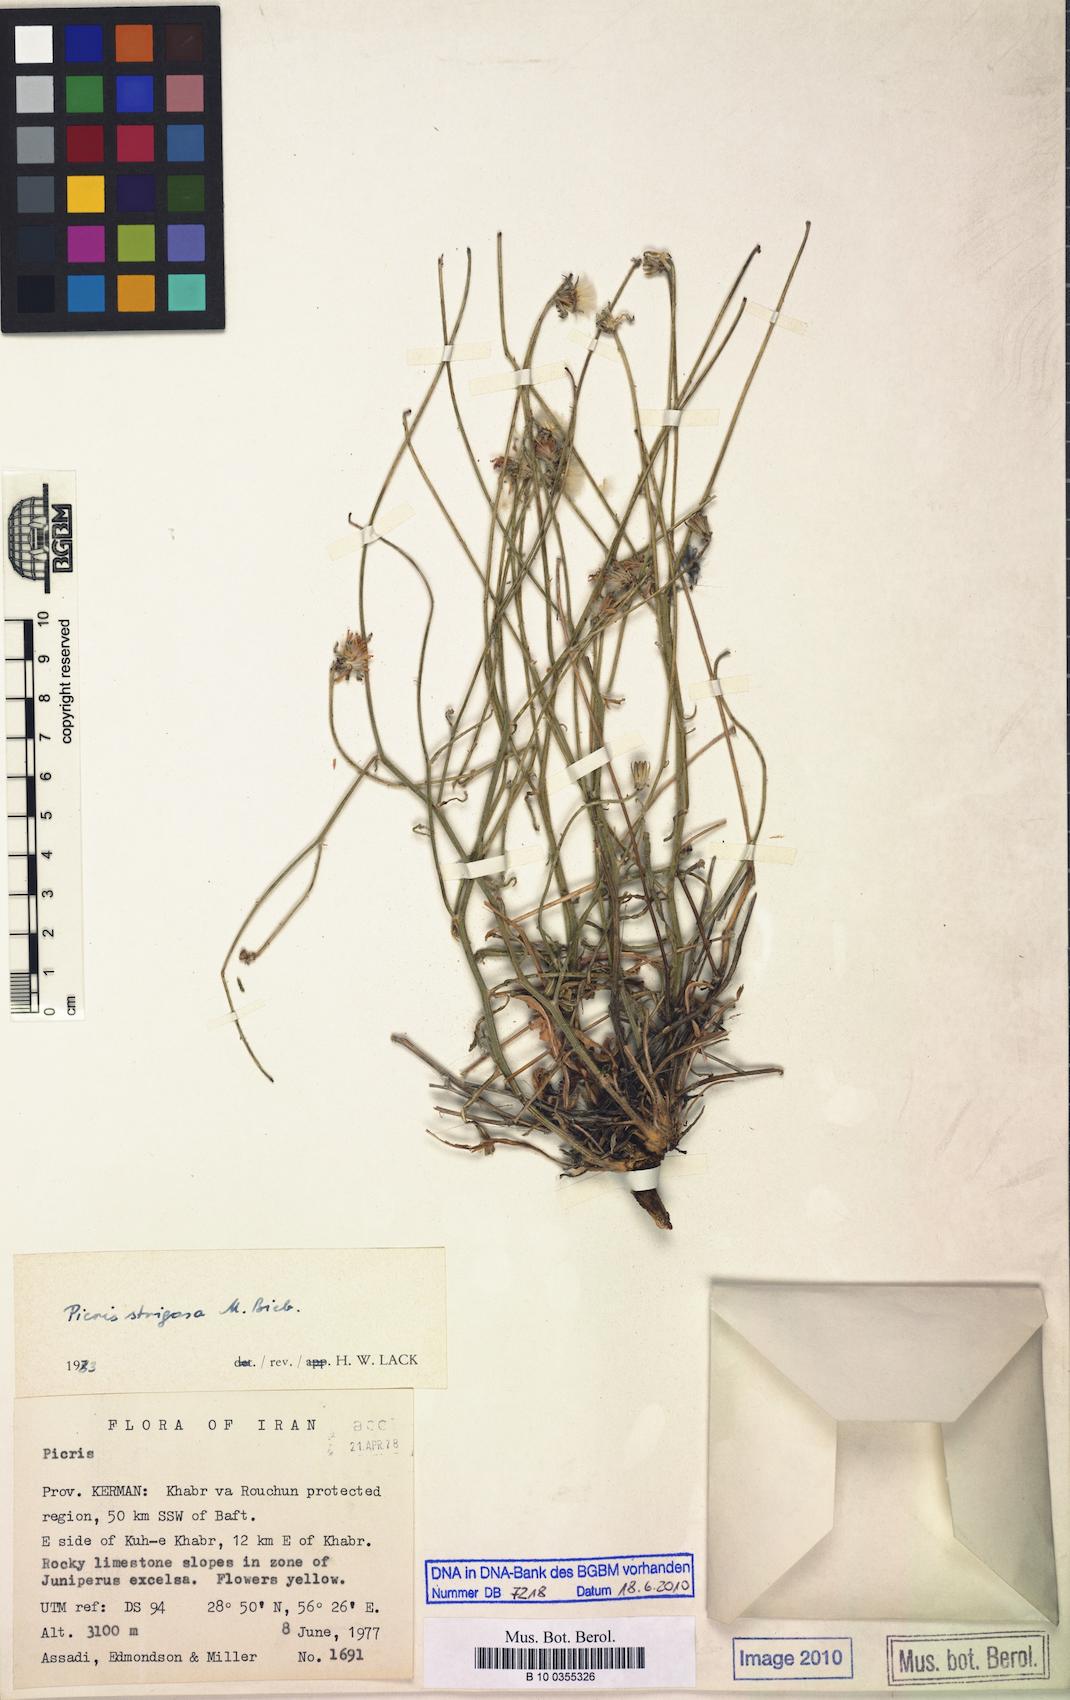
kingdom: Plantae
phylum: Tracheophyta
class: Magnoliopsida
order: Asterales
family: Asteraceae
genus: Picris
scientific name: Picris strigosa
